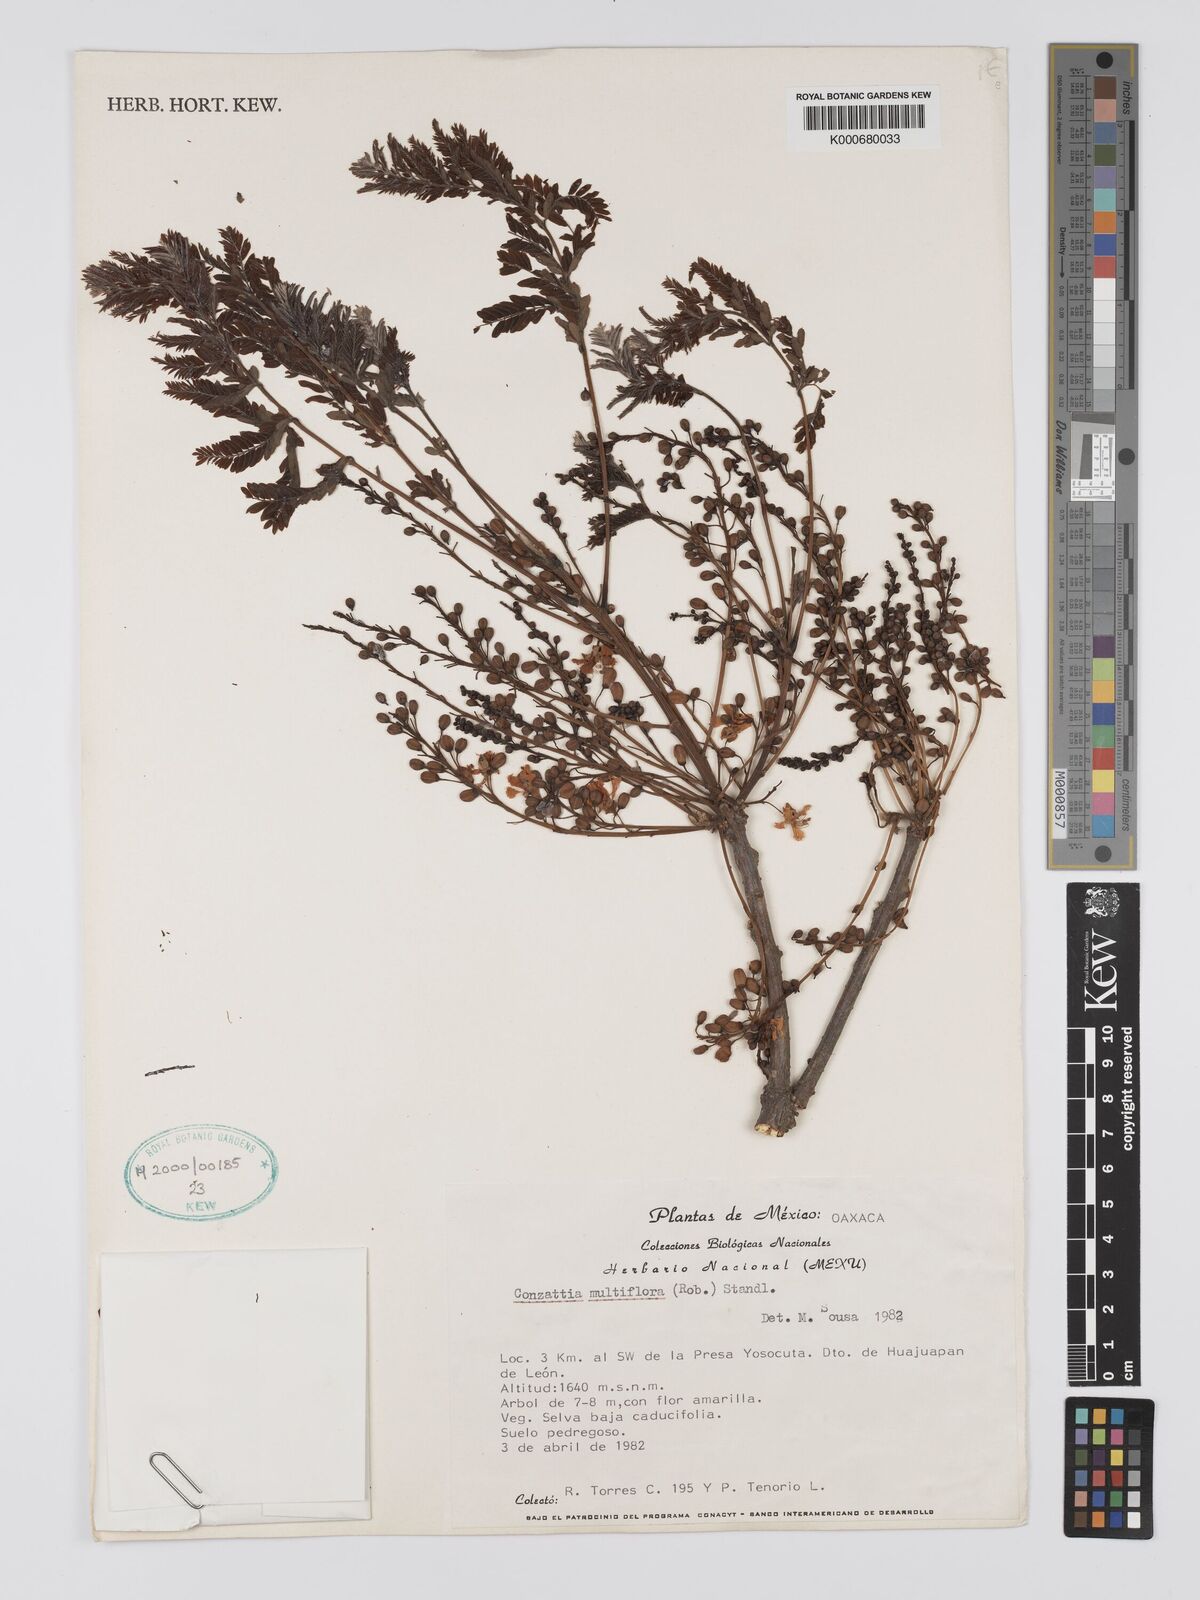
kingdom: Plantae
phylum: Tracheophyta
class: Magnoliopsida
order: Fabales
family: Fabaceae
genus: Conzattia
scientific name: Conzattia multiflora
